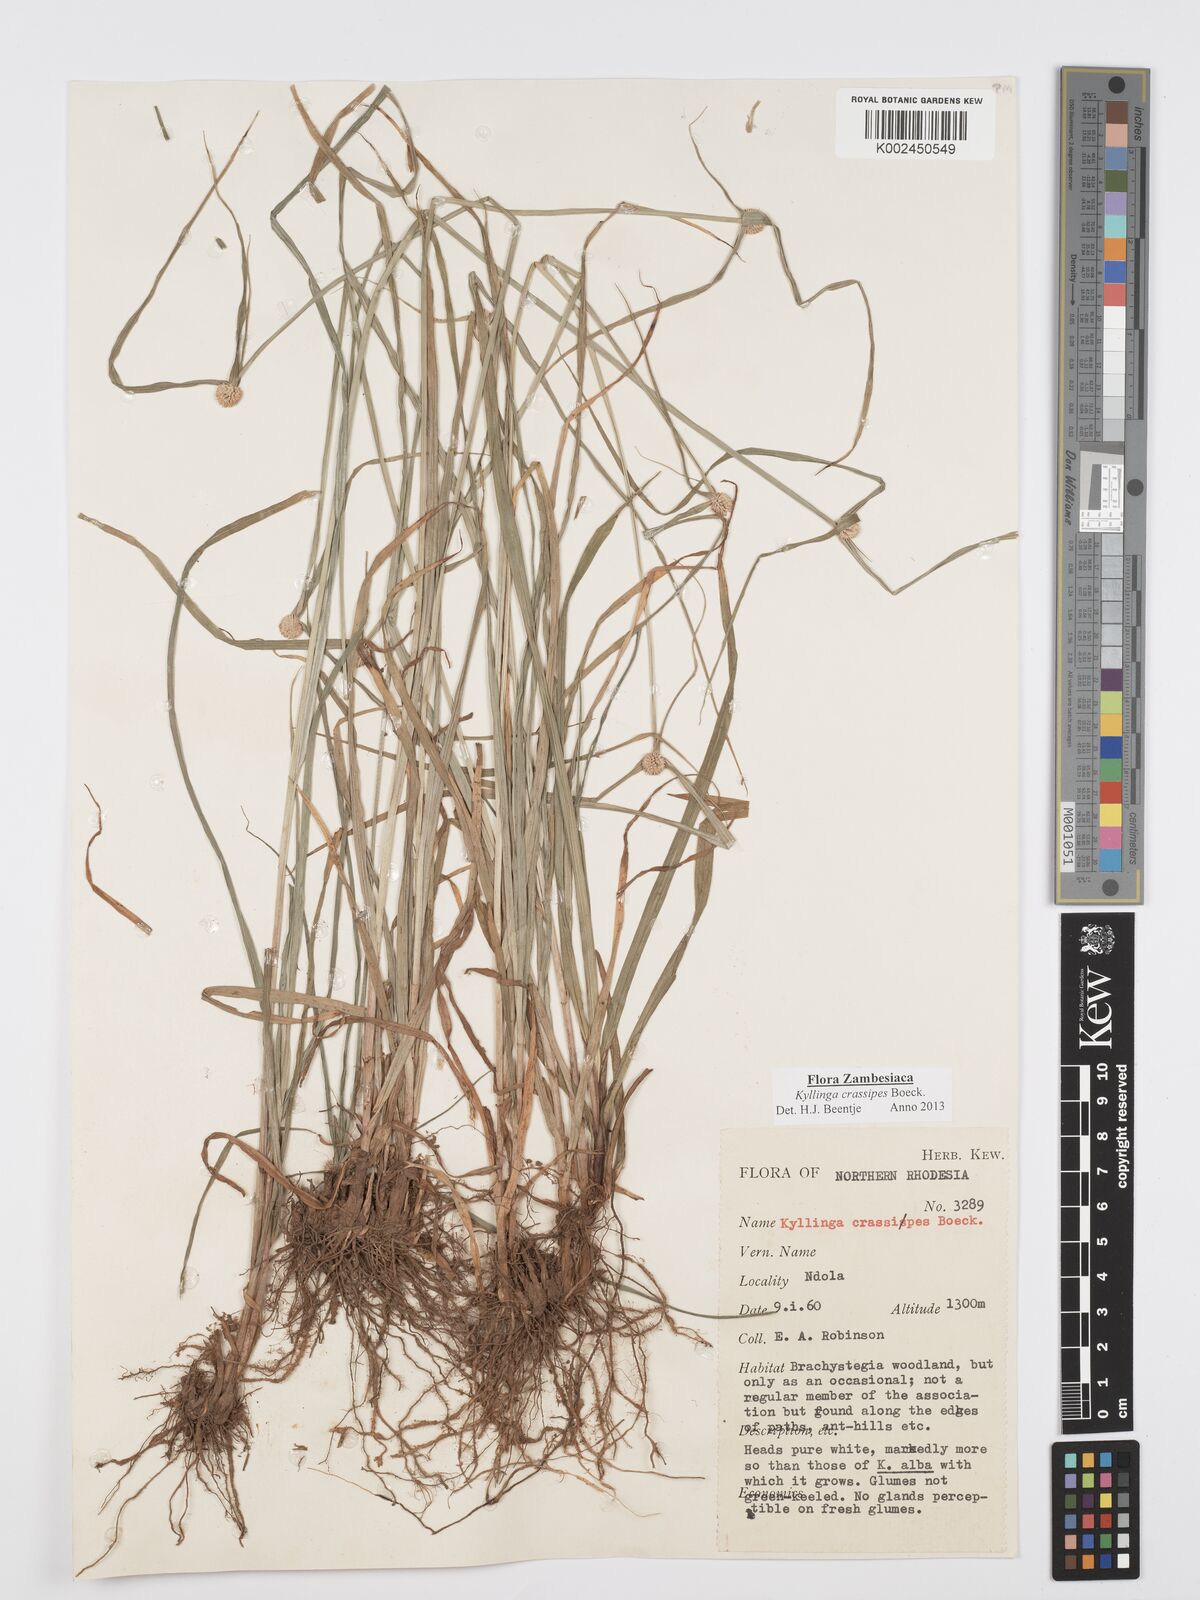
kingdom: Plantae
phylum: Tracheophyta
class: Liliopsida
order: Poales
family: Cyperaceae
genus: Cyperus
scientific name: Cyperus crassipes
